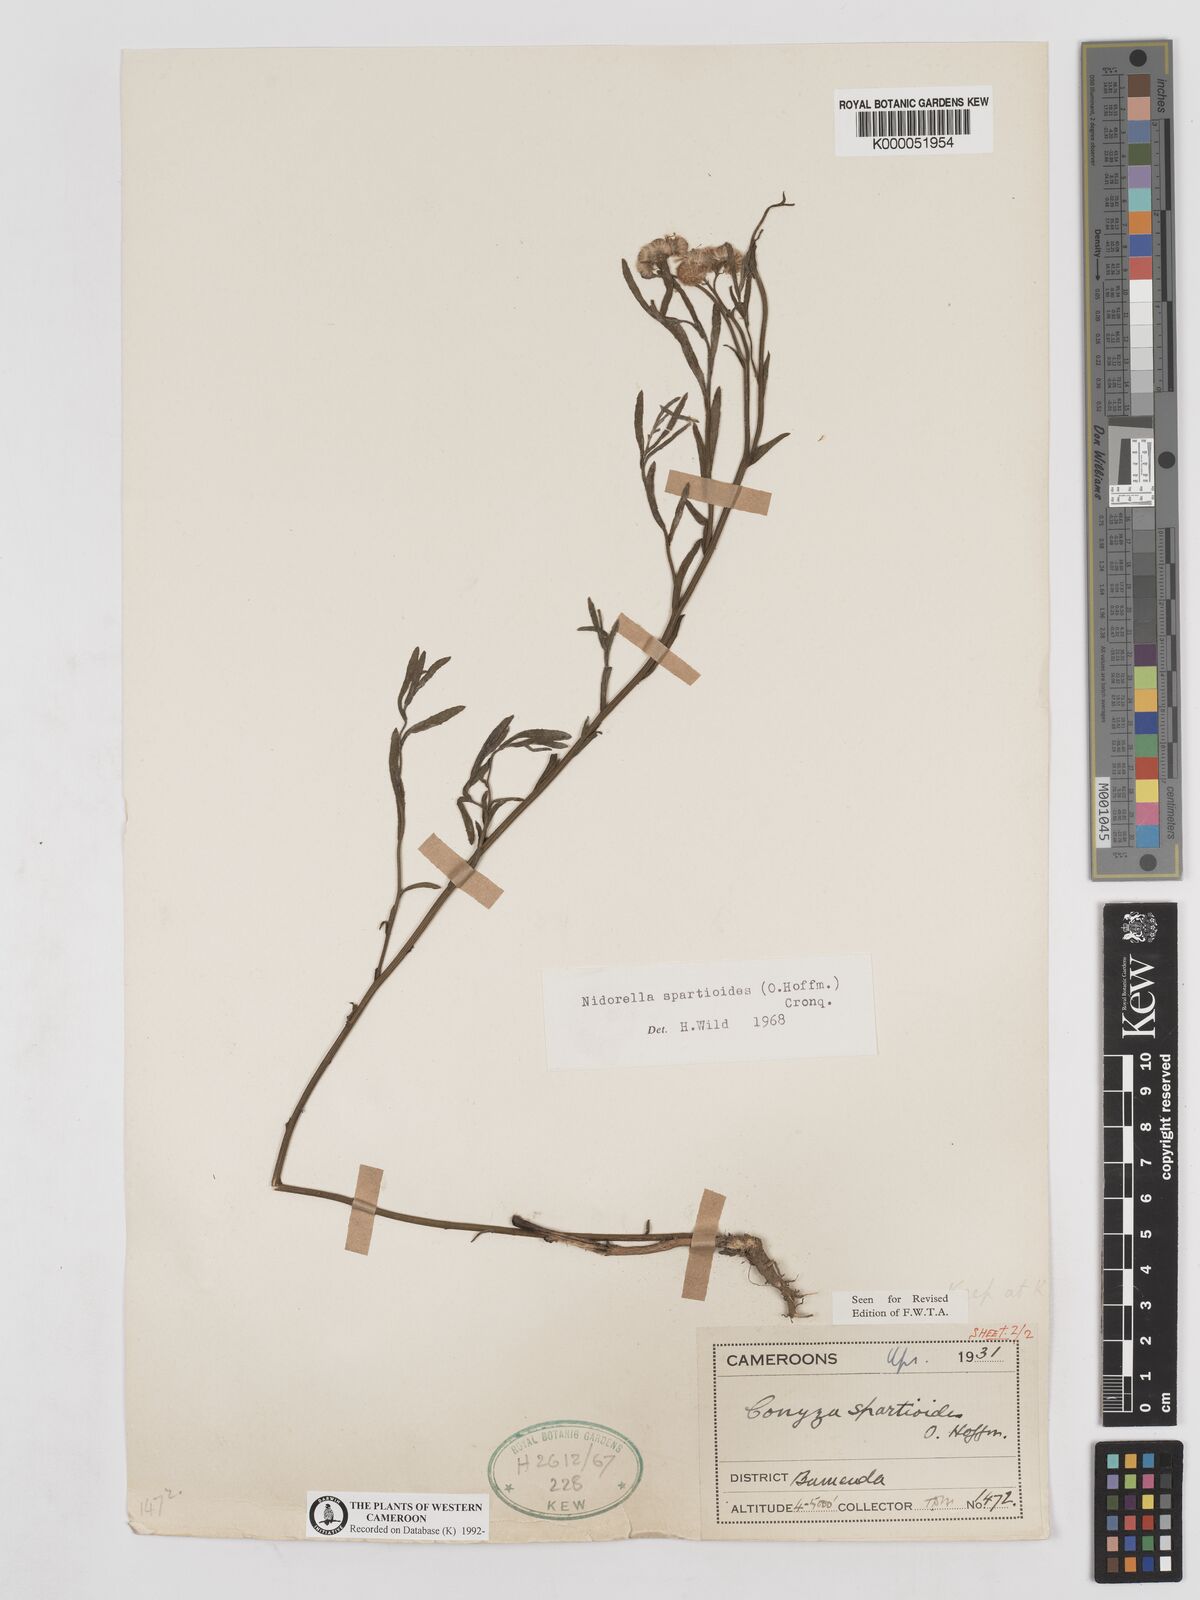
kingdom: Plantae
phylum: Tracheophyta
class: Magnoliopsida
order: Asterales
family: Asteraceae
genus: Nidorella
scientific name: Nidorella spartioides
